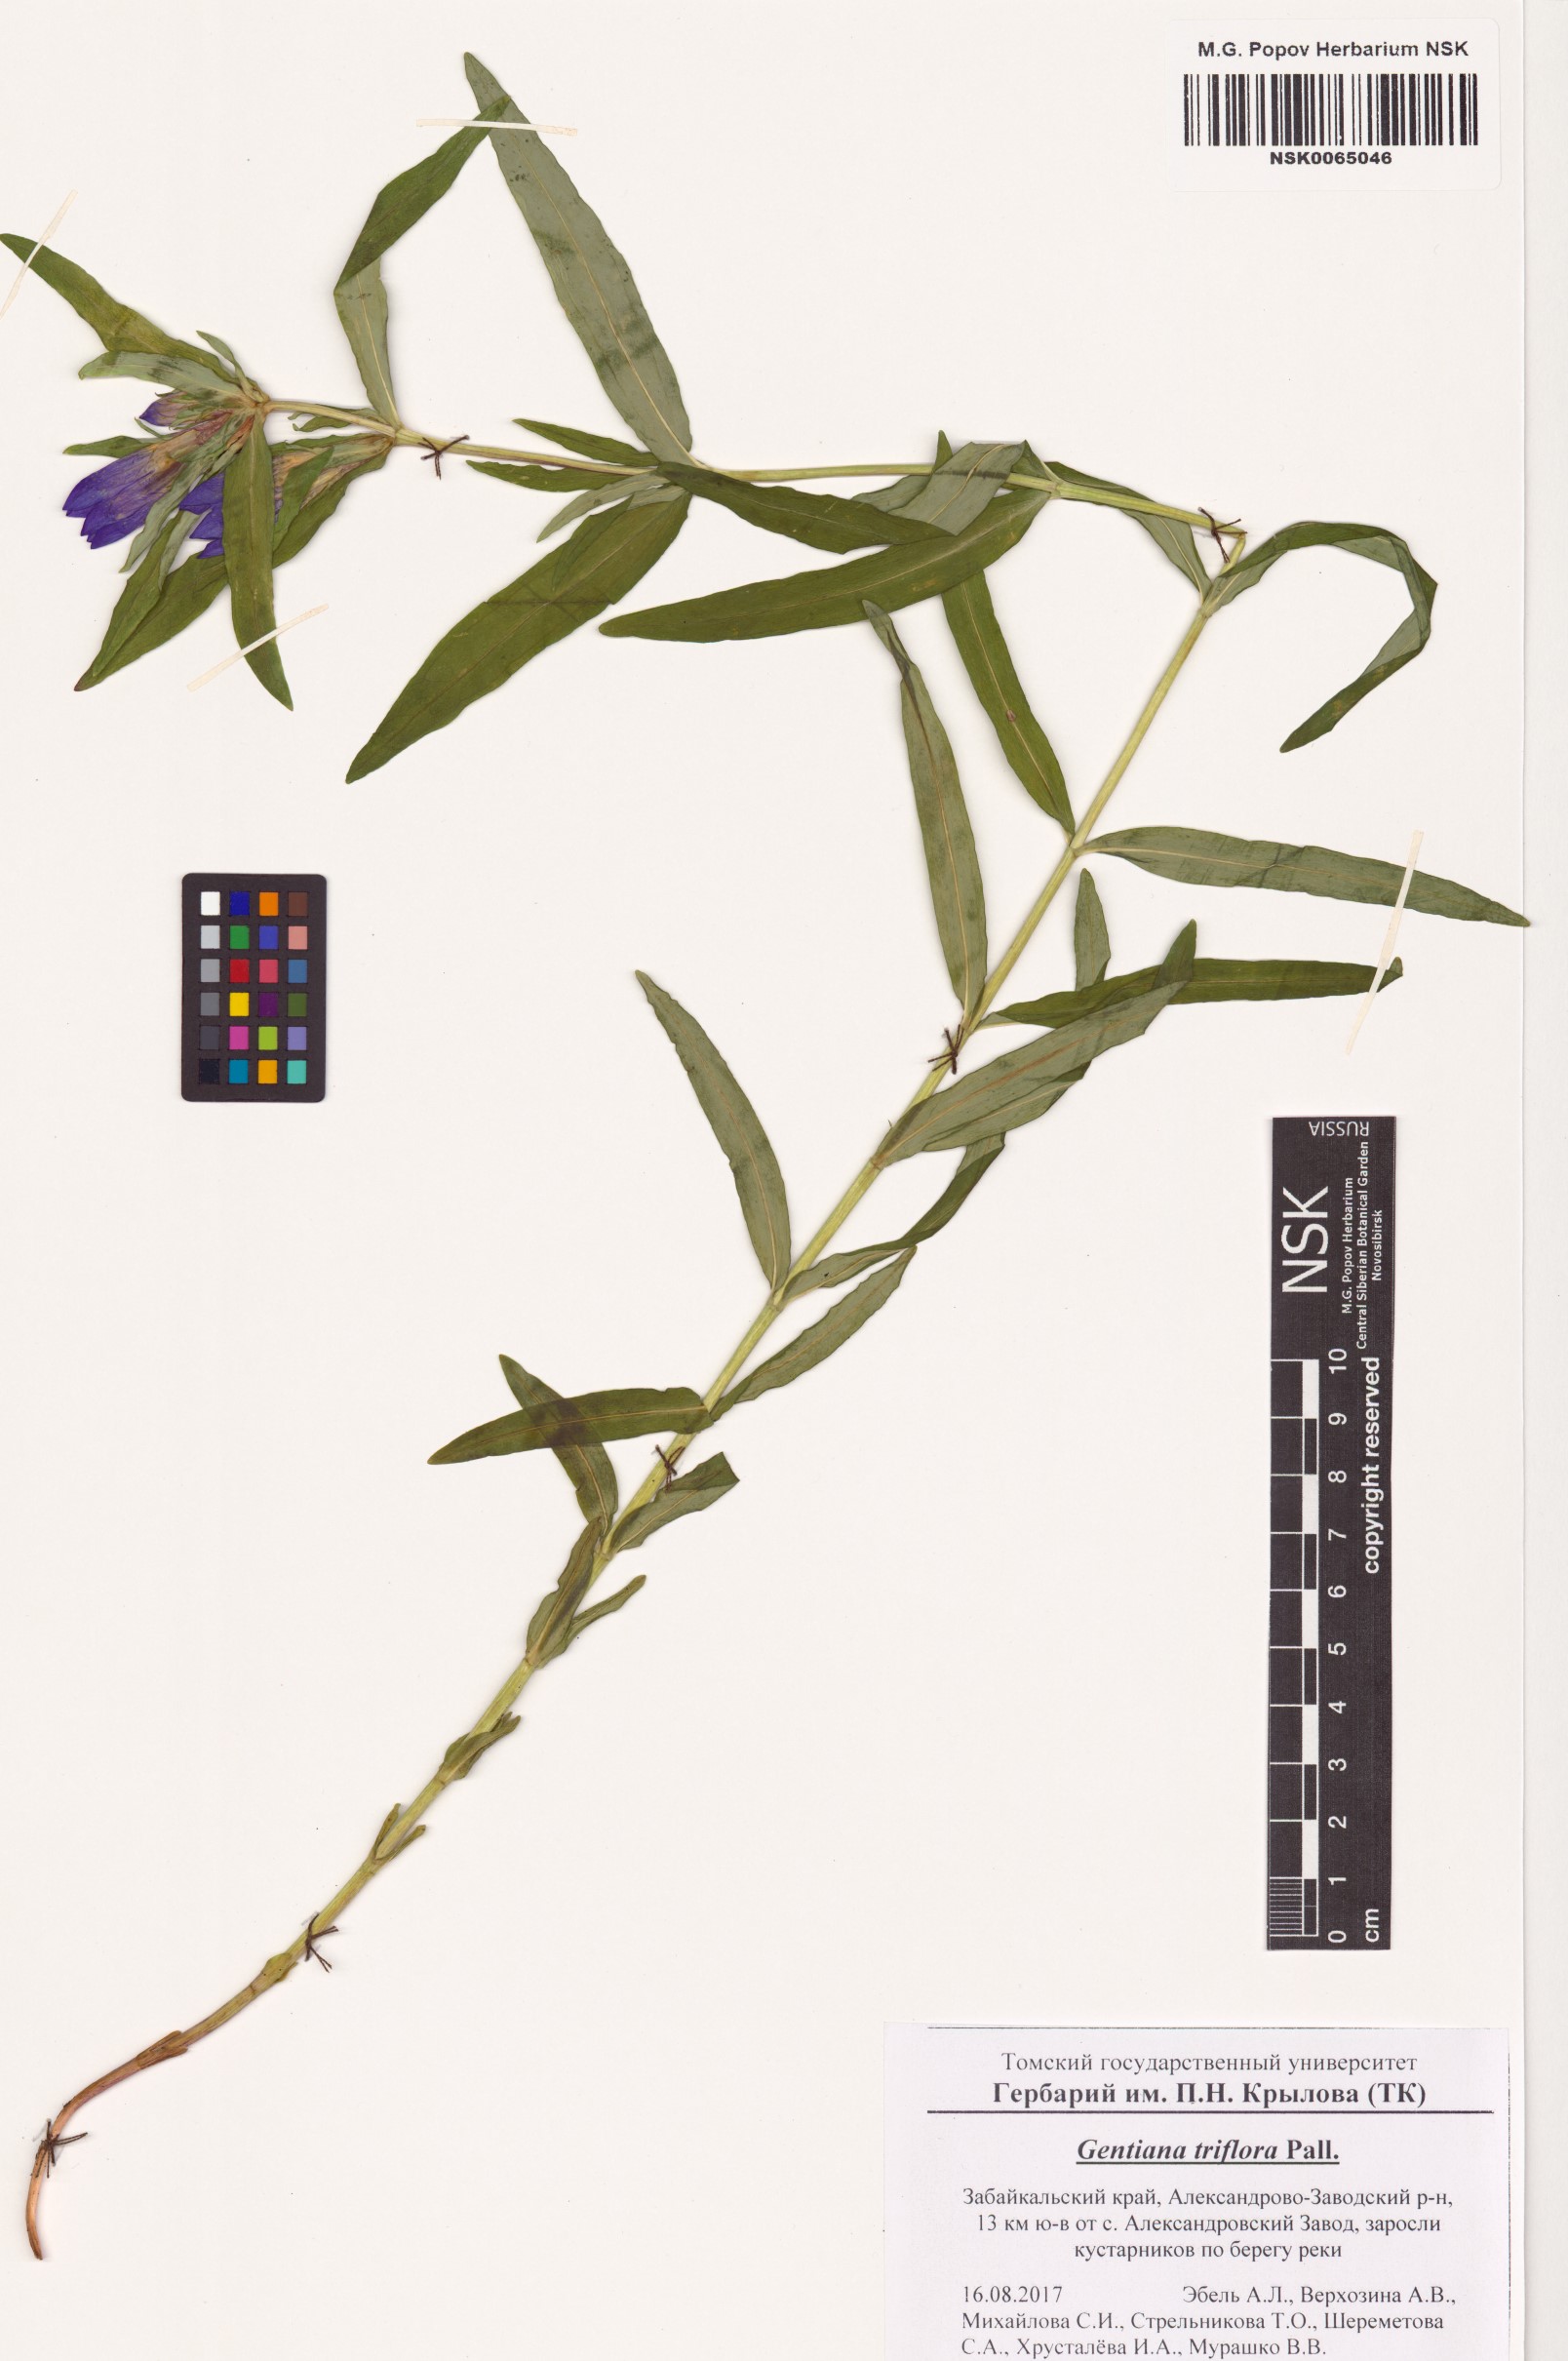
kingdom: Plantae
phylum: Tracheophyta
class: Magnoliopsida
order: Gentianales
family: Gentianaceae
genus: Gentiana
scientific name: Gentiana triflora
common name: Three-flower gentian
